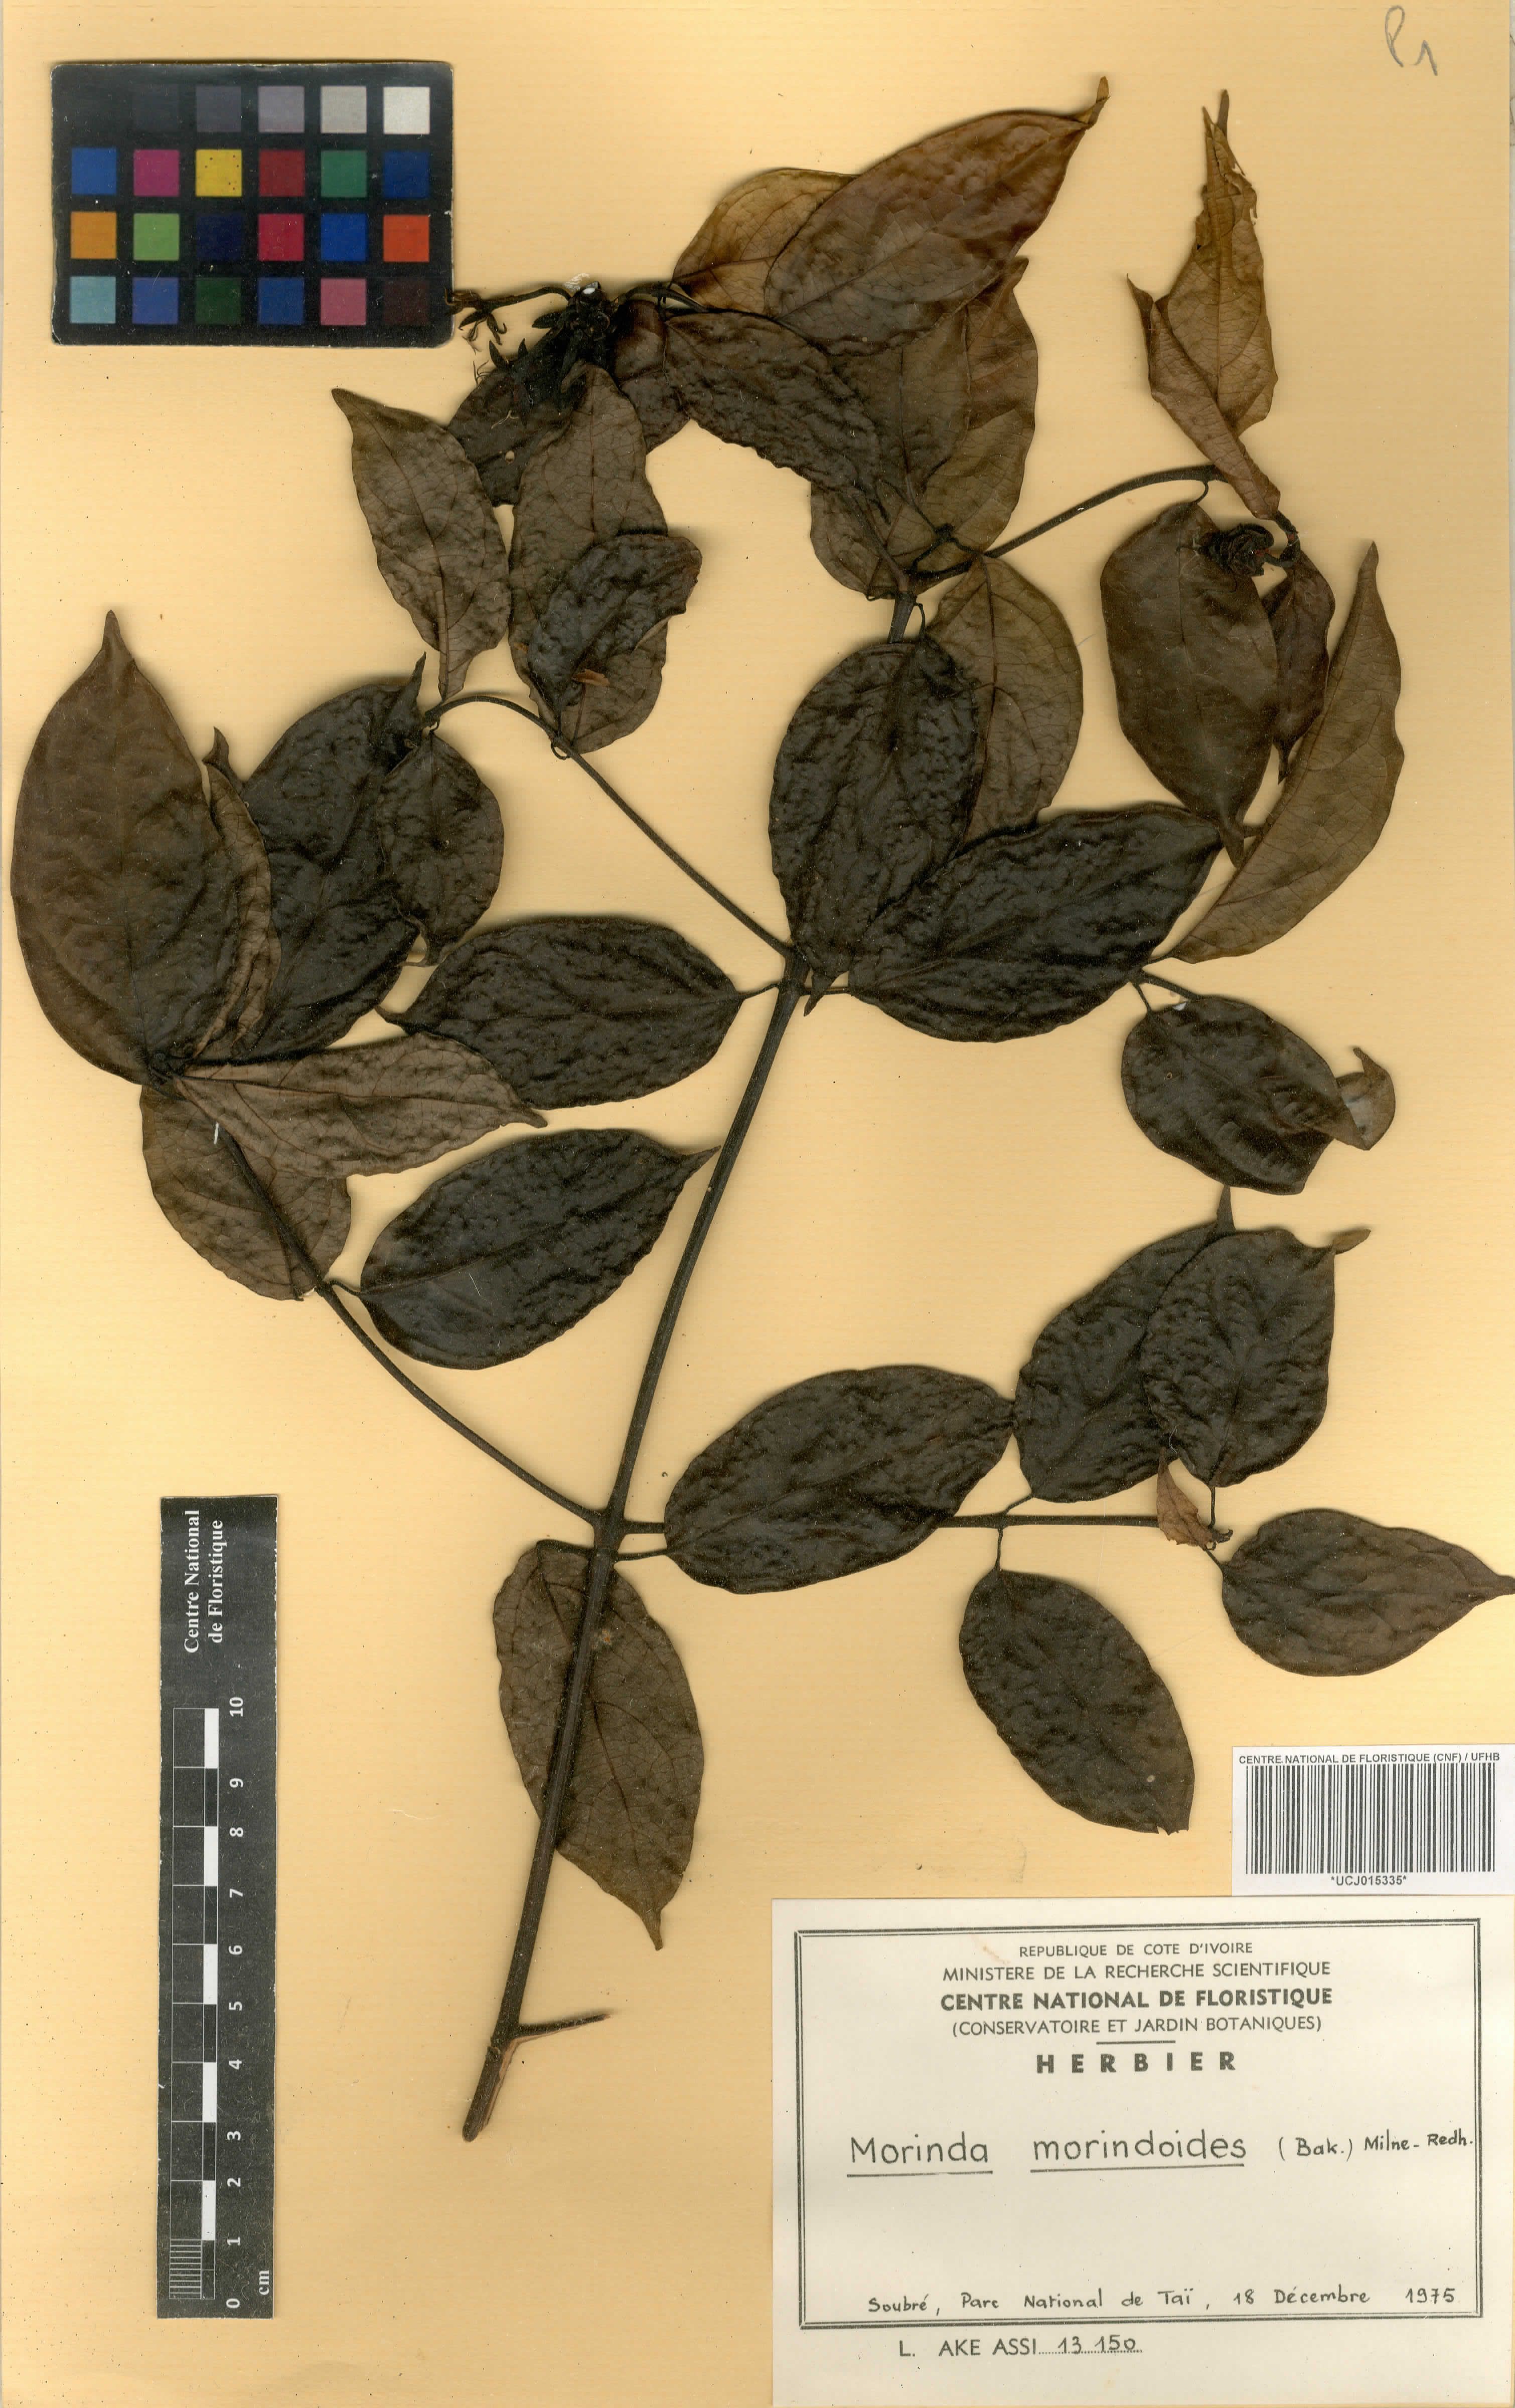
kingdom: Plantae
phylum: Tracheophyta
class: Magnoliopsida
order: Gentianales
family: Rubiaceae
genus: Morinda
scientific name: Morinda morindoides
